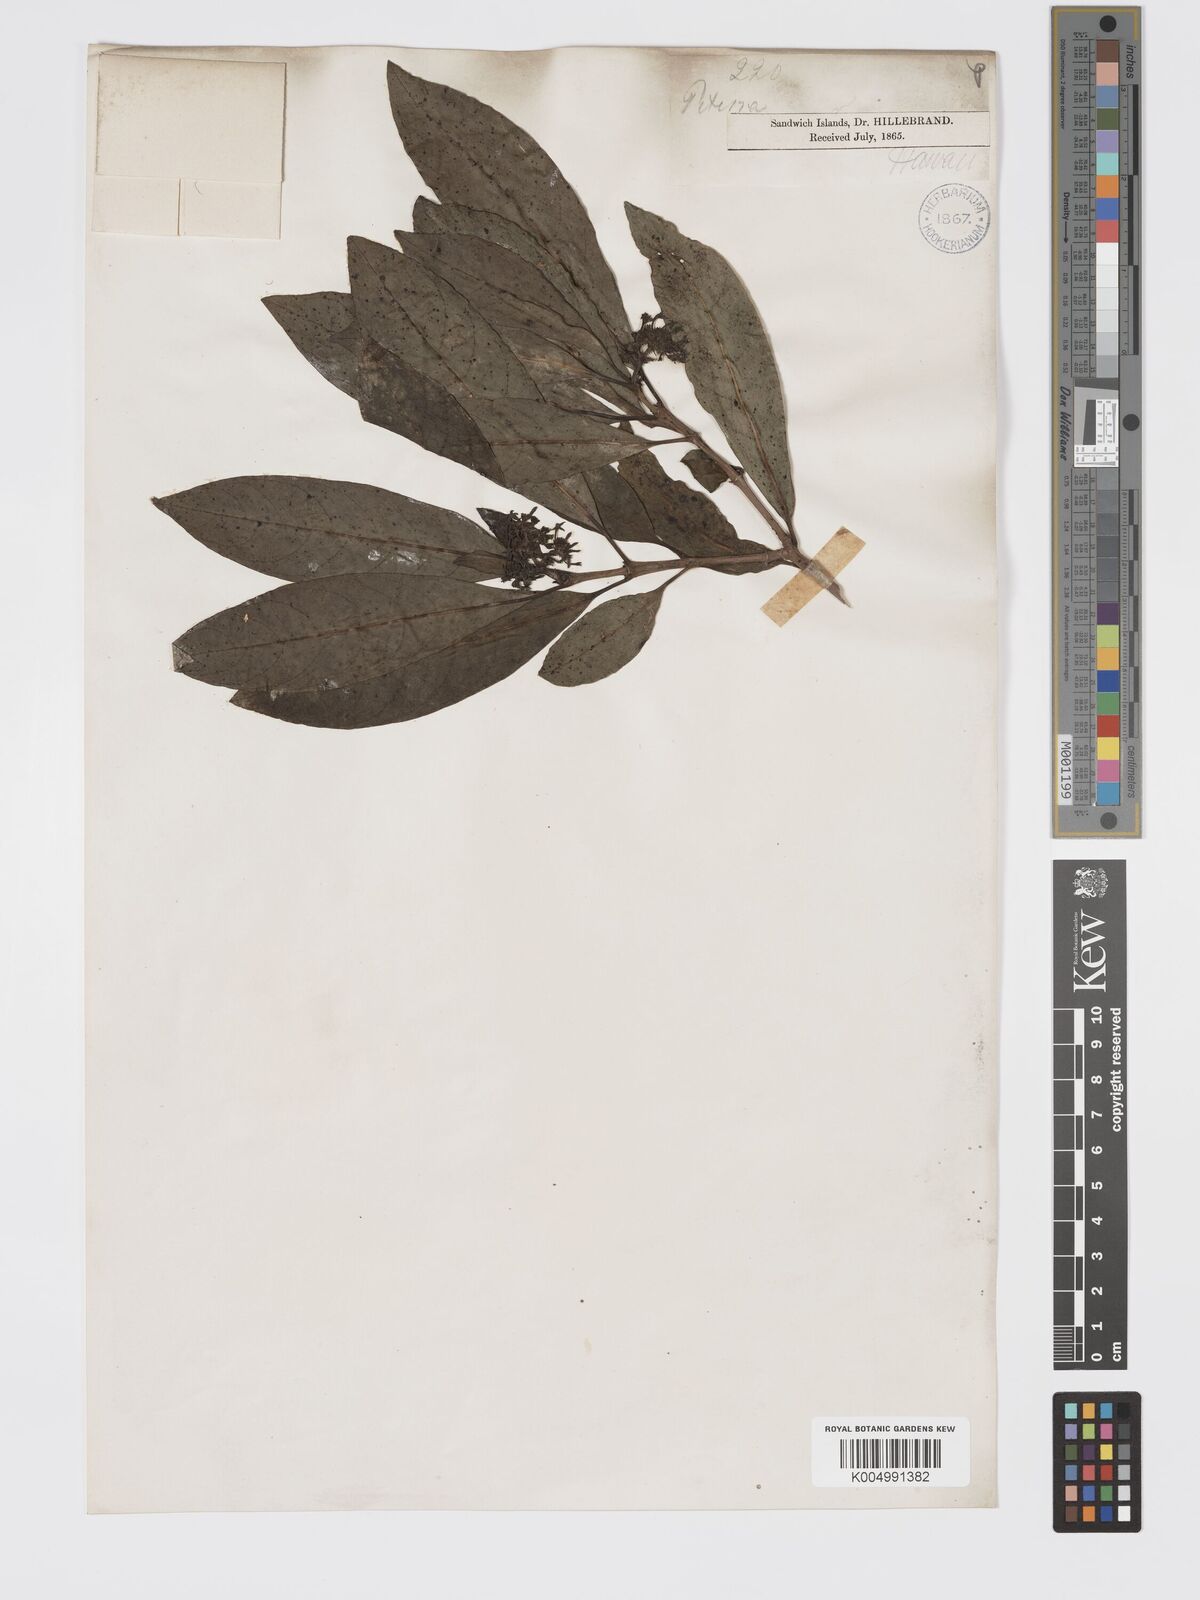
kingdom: Plantae
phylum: Tracheophyta
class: Magnoliopsida
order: Gentianales
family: Rubiaceae
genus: Kadua
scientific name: Kadua affinis
